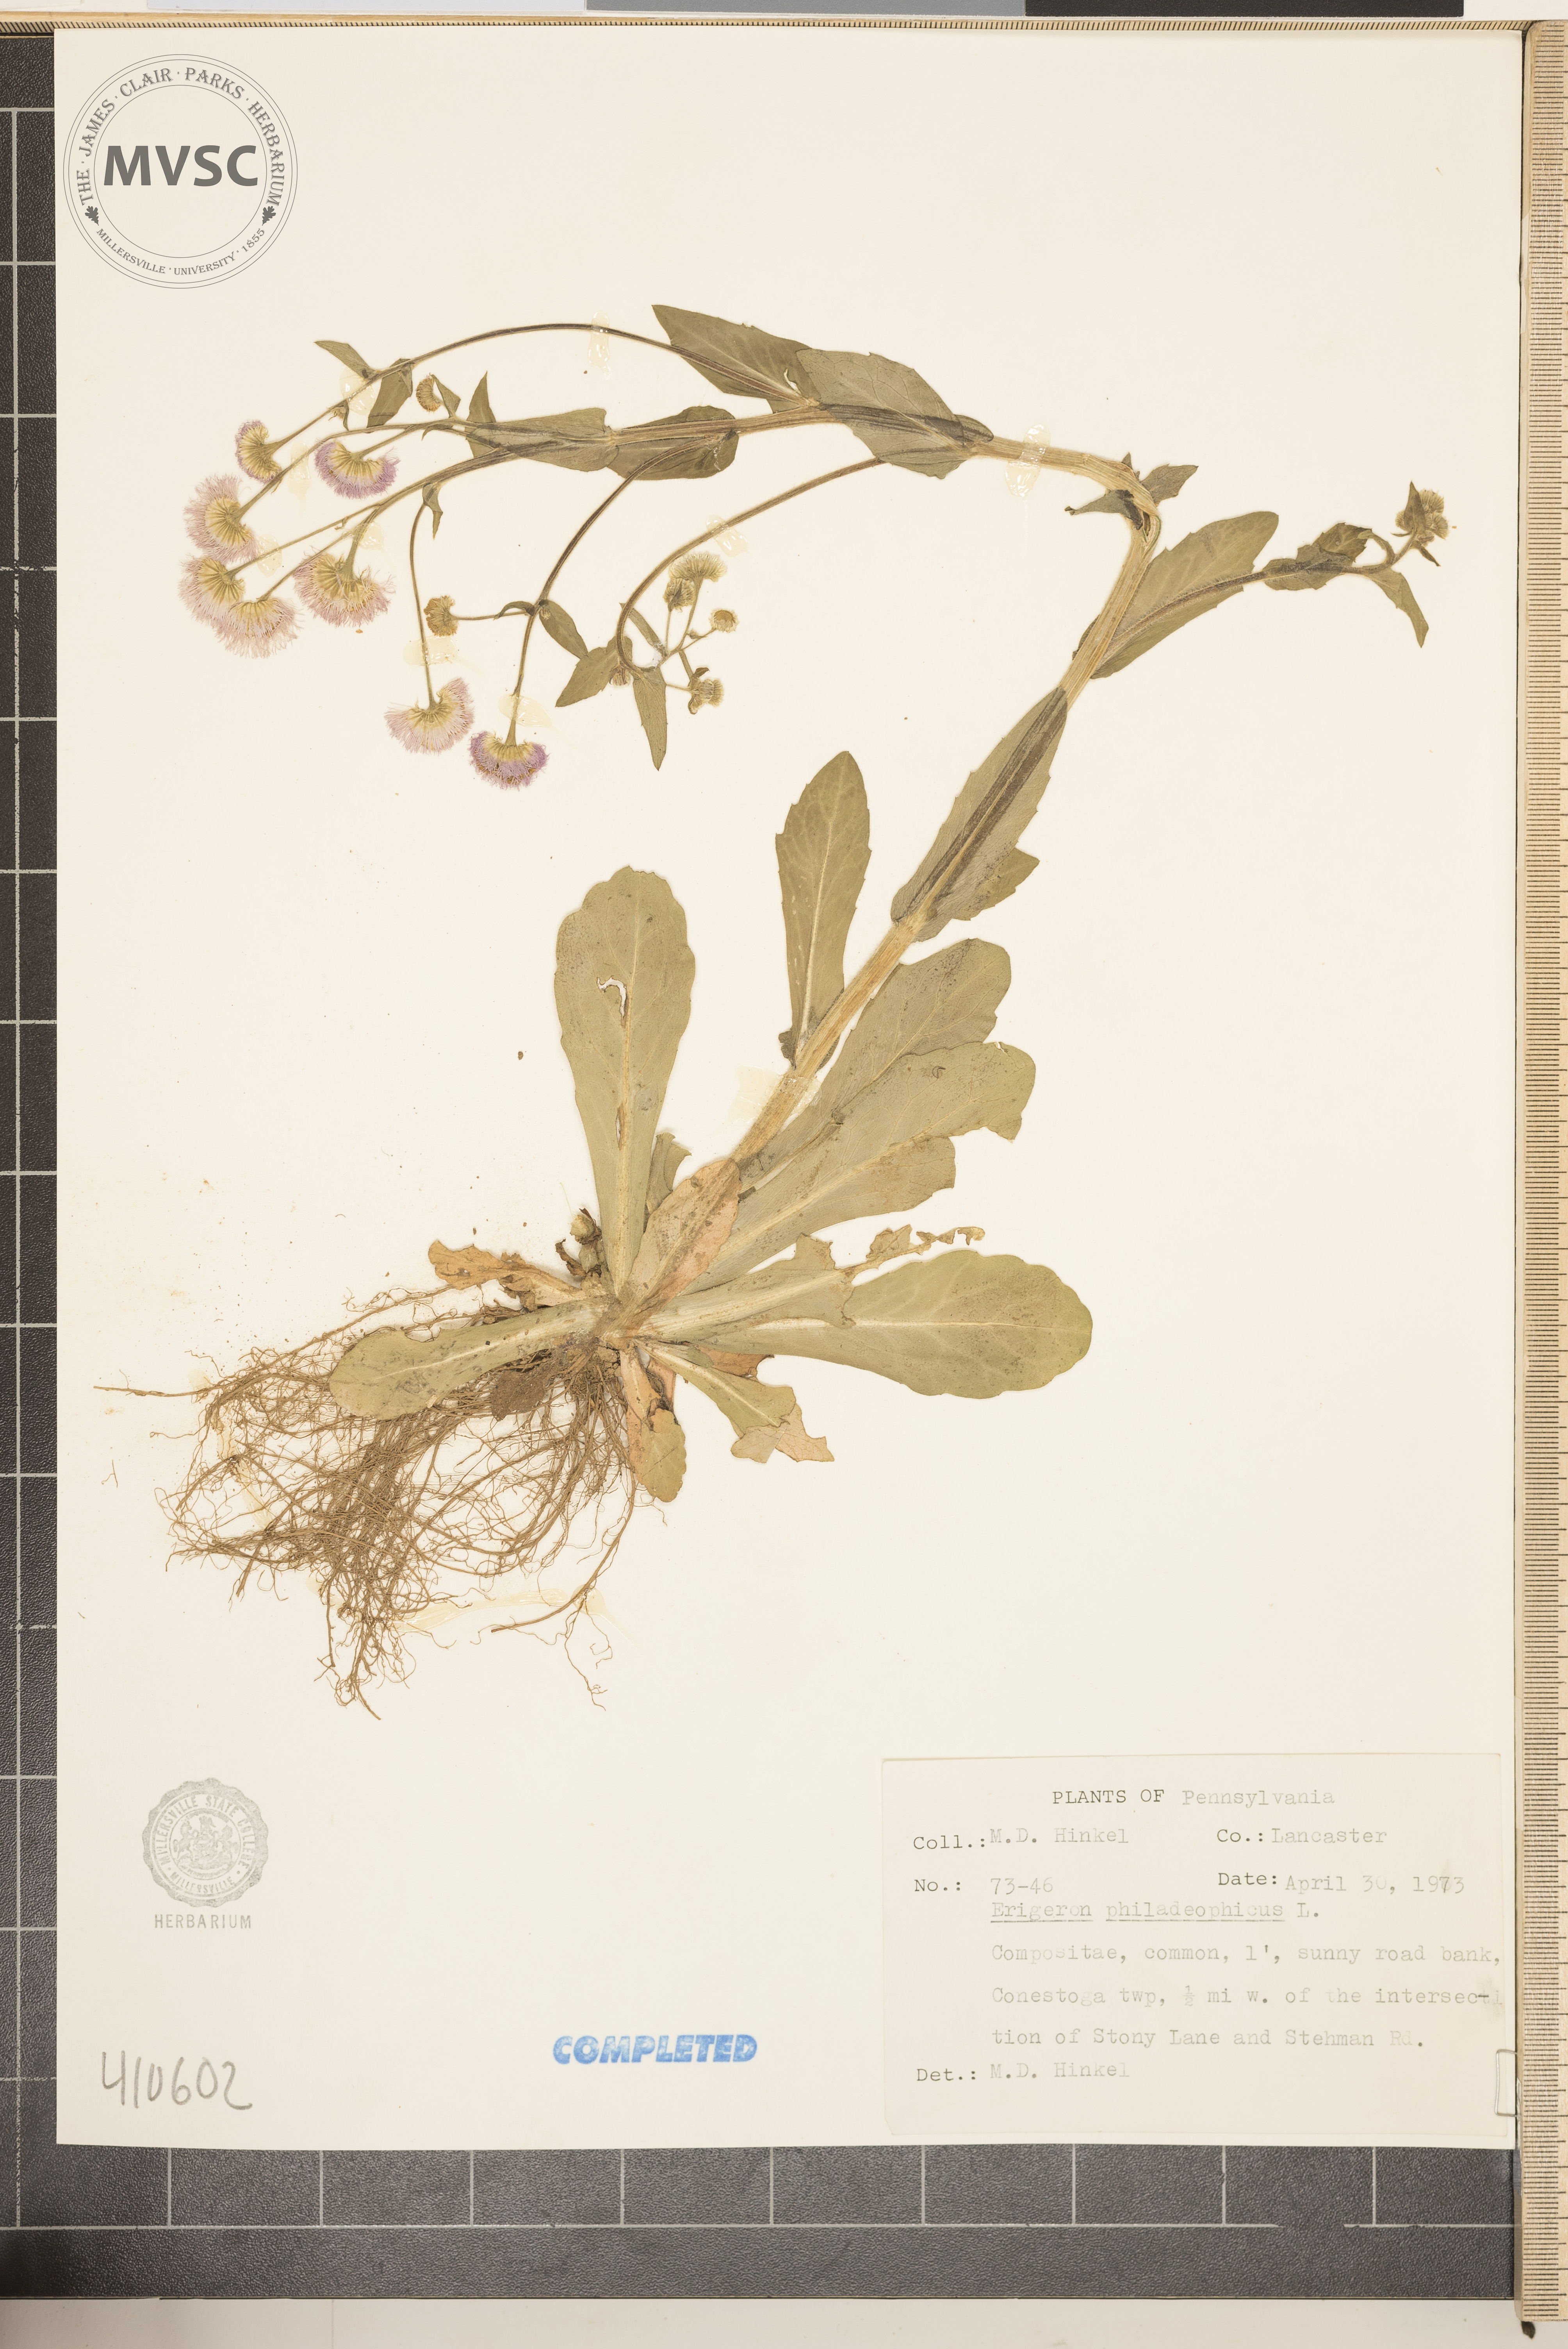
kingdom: Plantae
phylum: Tracheophyta
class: Magnoliopsida
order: Asterales
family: Asteraceae
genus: Erigeron
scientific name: Erigeron philadelphicus
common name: Robin's-plantain
